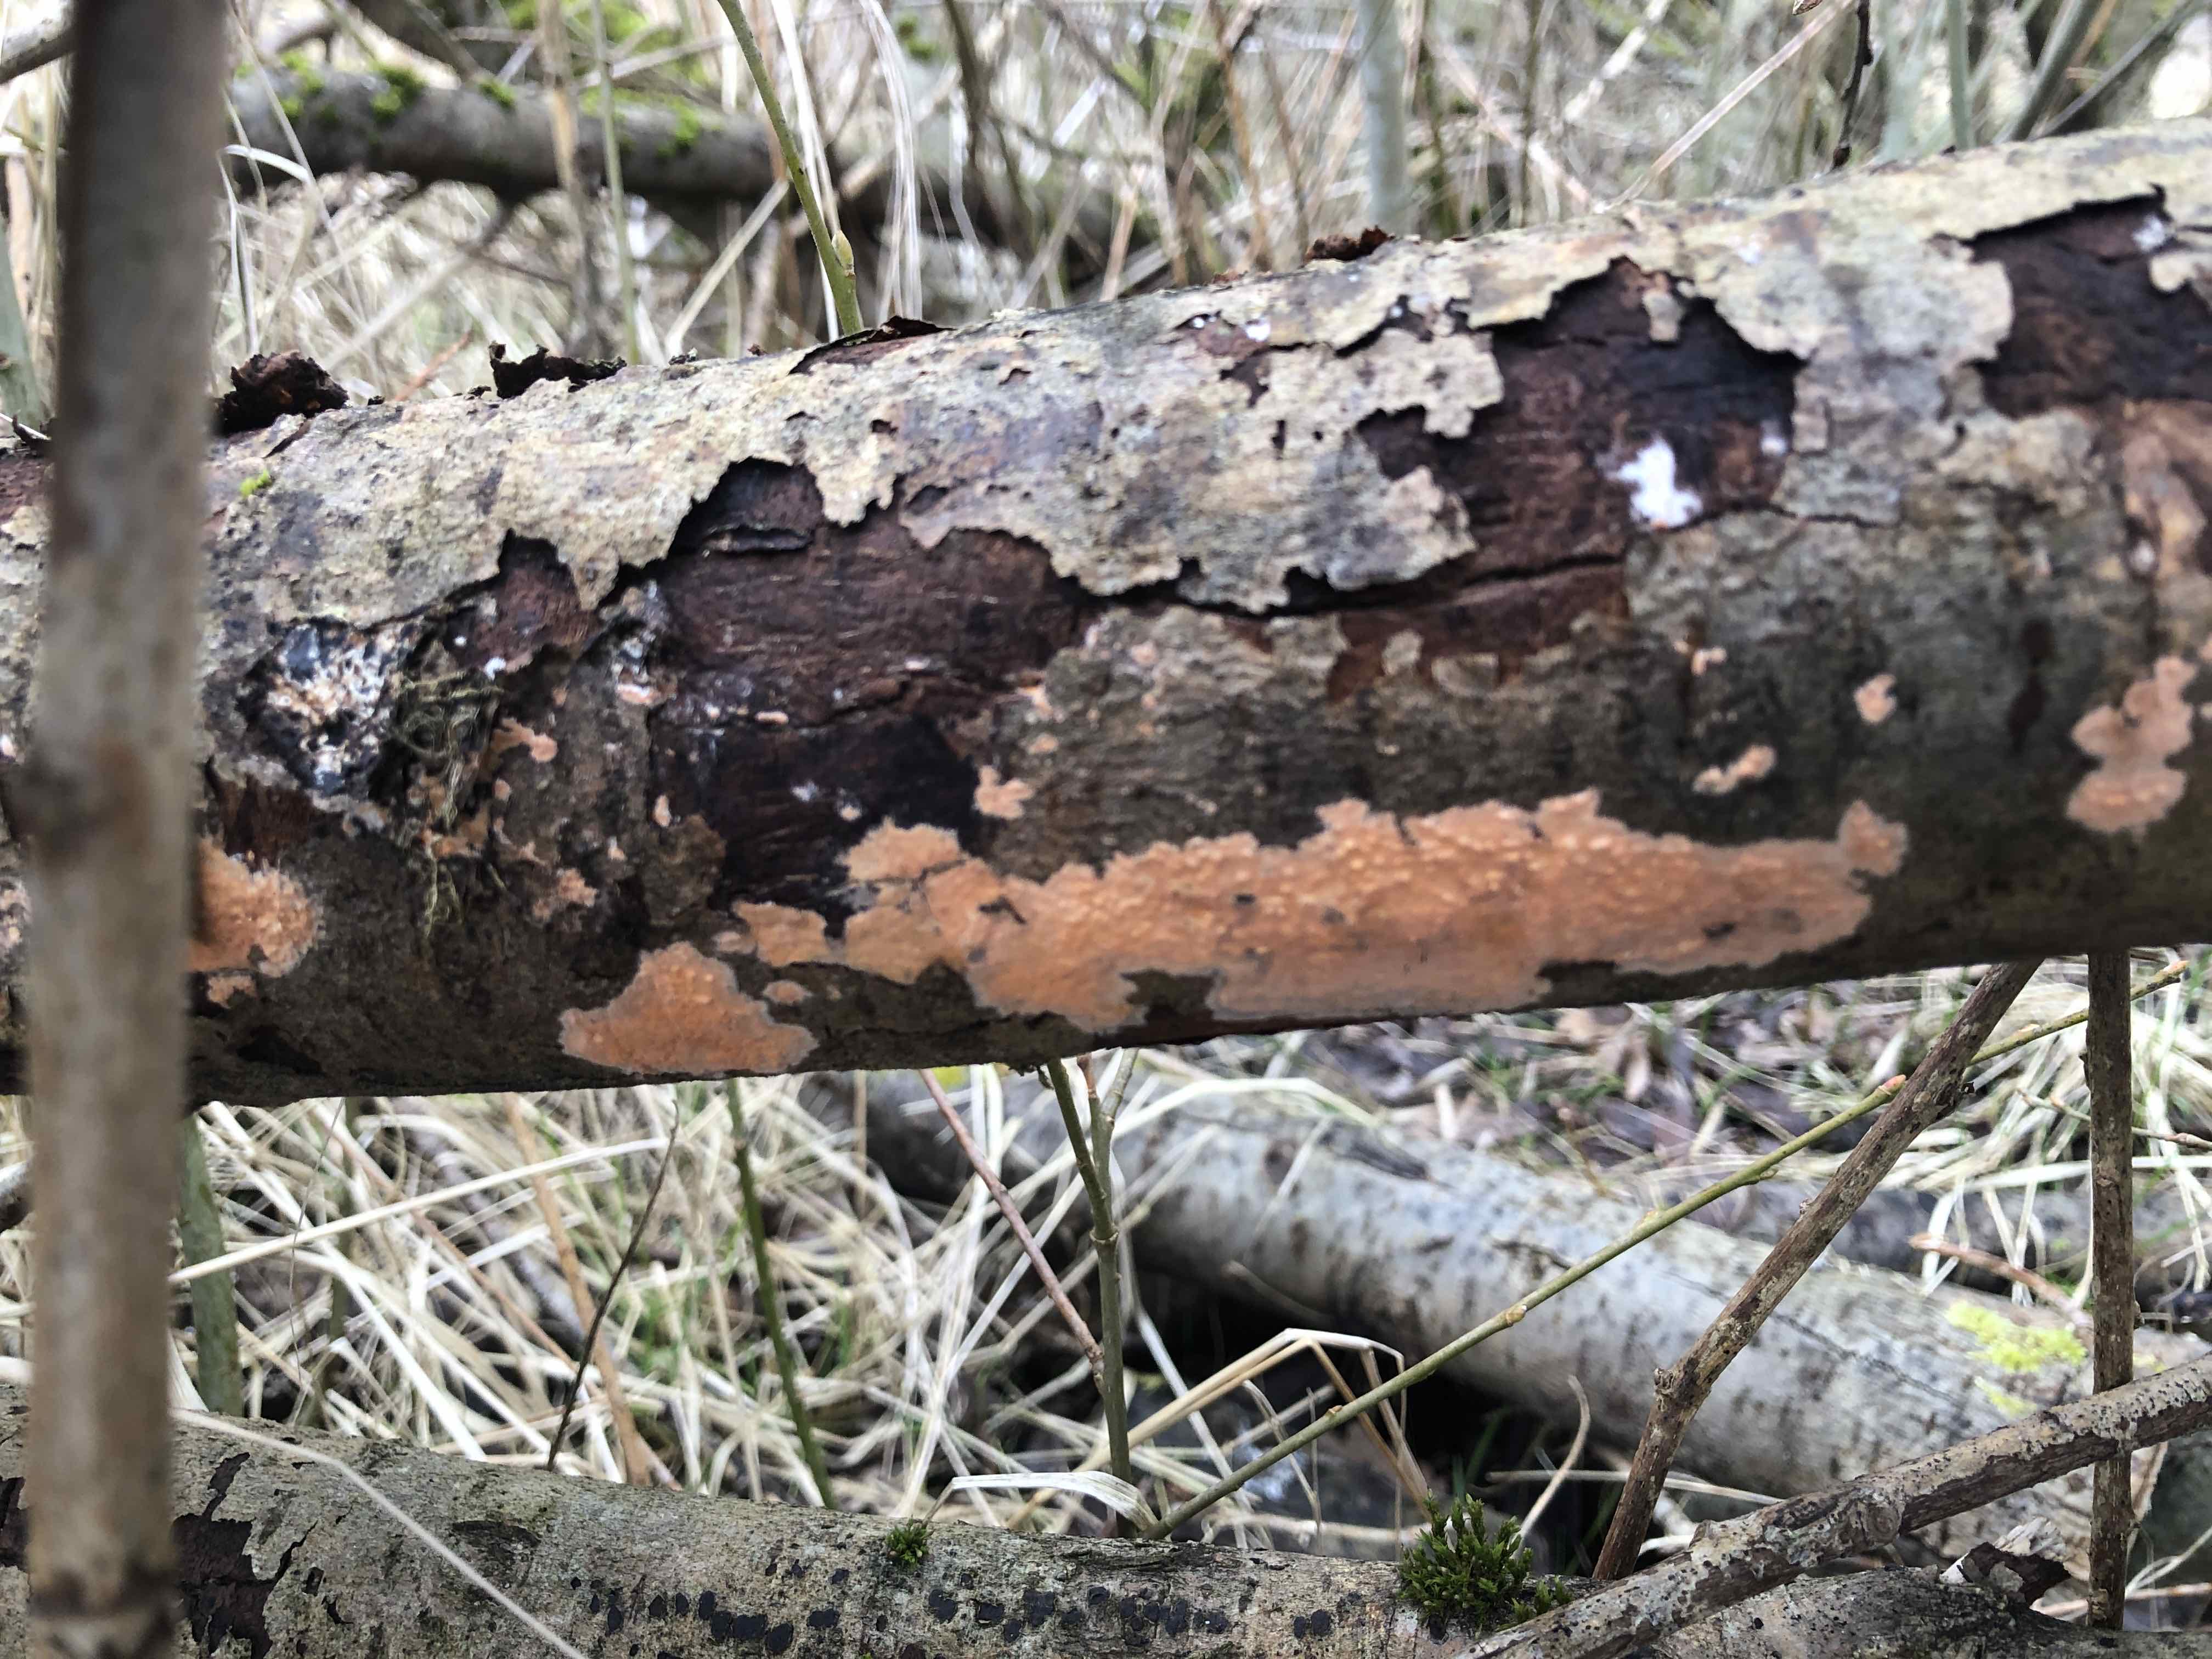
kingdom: Fungi
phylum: Basidiomycota
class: Agaricomycetes
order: Russulales
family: Peniophoraceae
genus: Peniophora
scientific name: Peniophora incarnata
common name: laksefarvet voksskind
